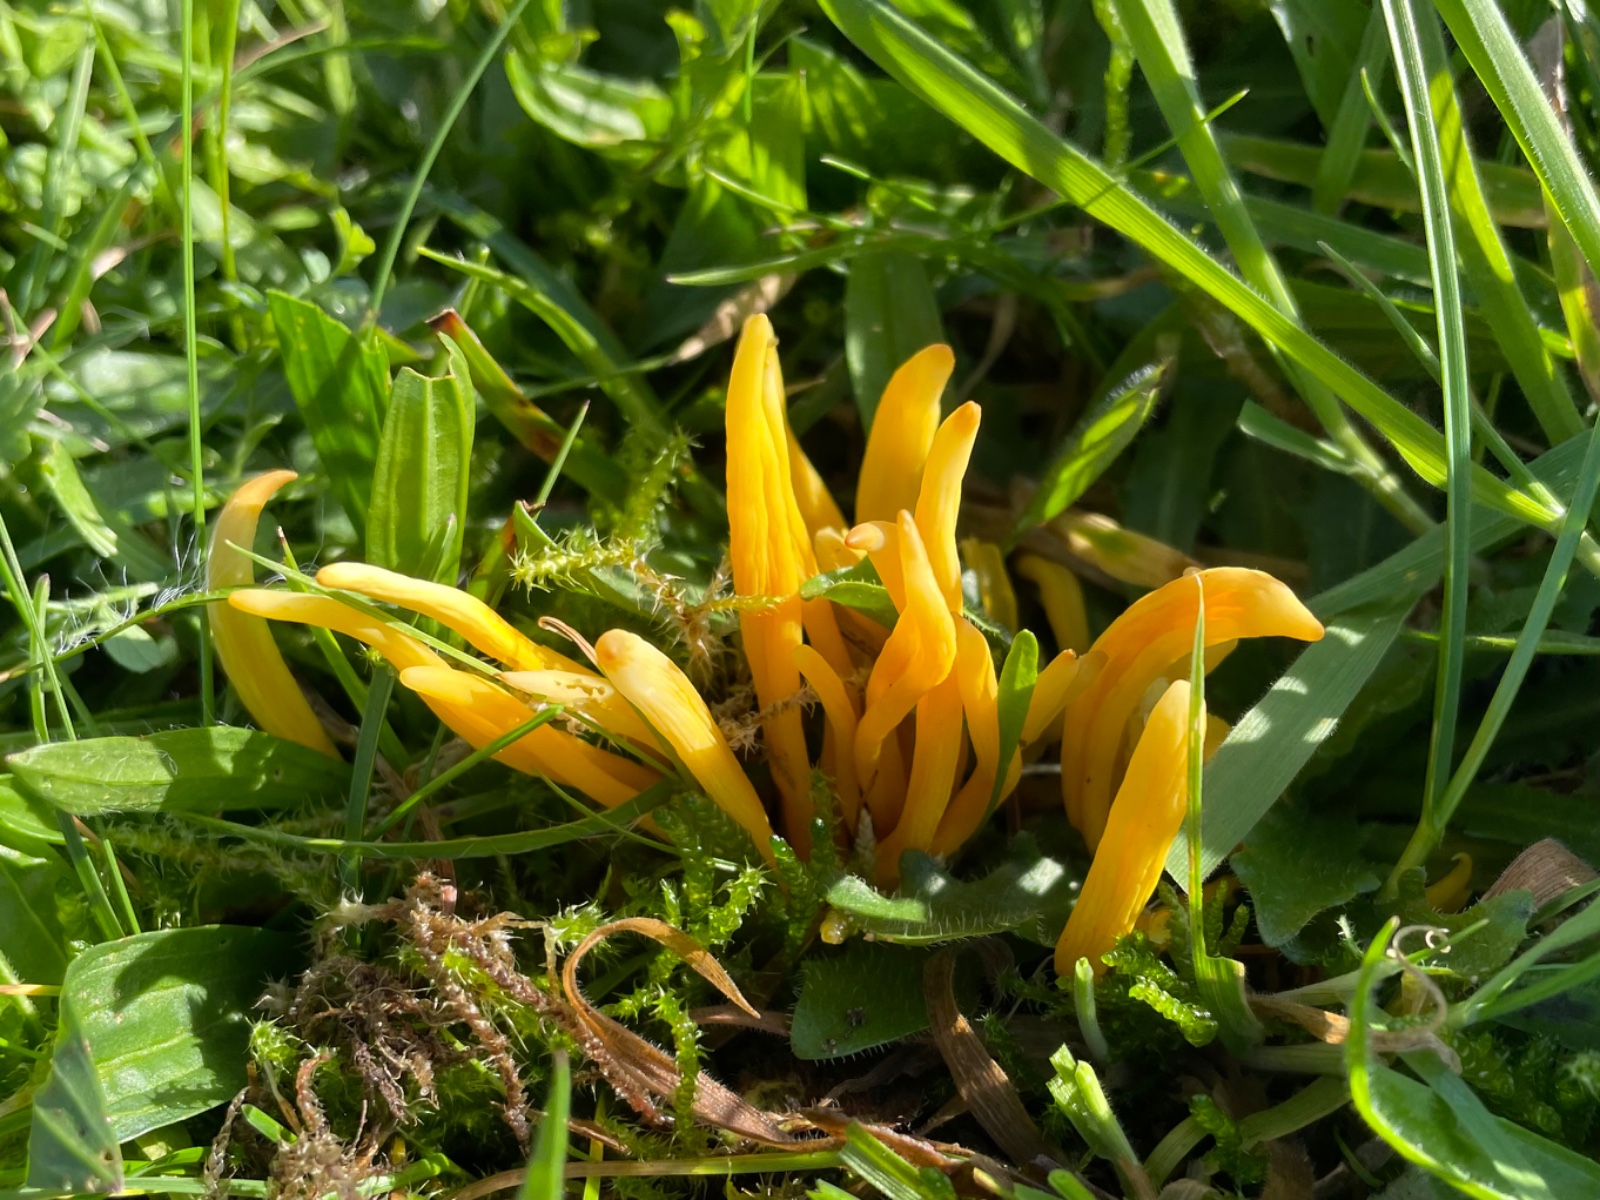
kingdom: Fungi
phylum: Basidiomycota
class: Agaricomycetes
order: Agaricales
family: Clavariaceae
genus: Clavulinopsis
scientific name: Clavulinopsis laeticolor
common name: flamme-køllesvamp
